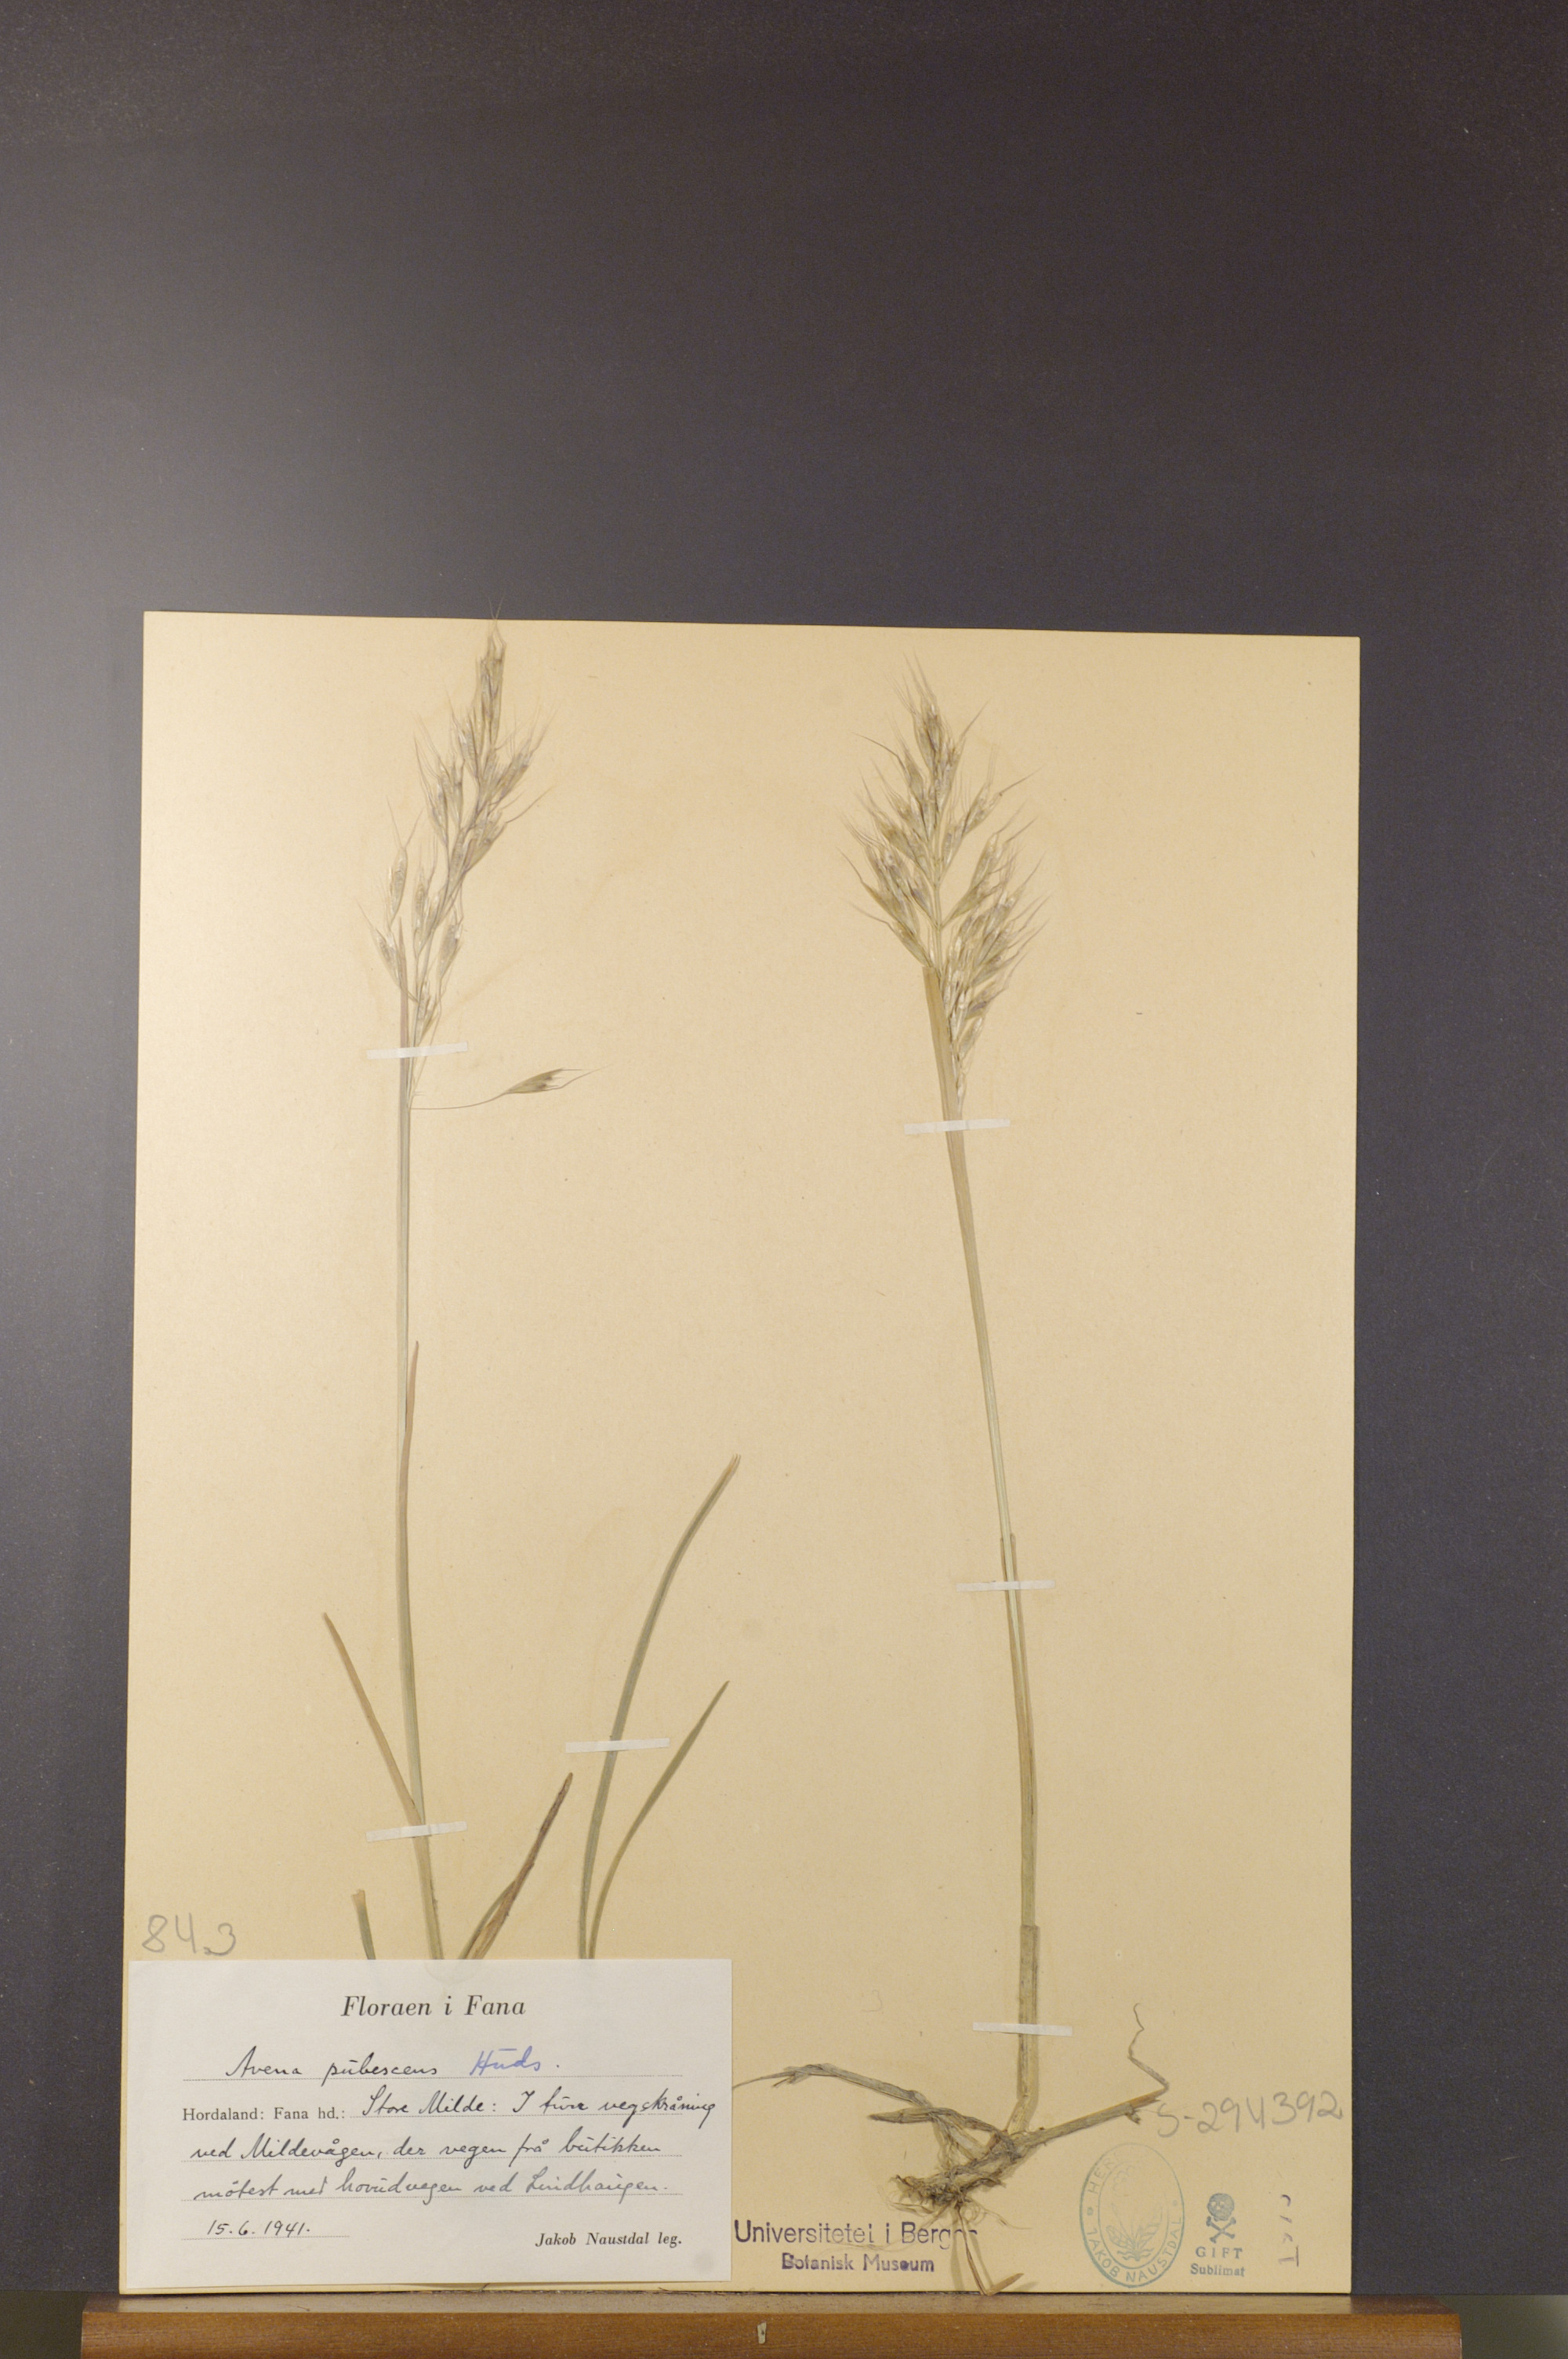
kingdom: Plantae
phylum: Tracheophyta
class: Liliopsida
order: Poales
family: Poaceae
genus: Avenula
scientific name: Avenula pubescens
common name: Downy alpine oatgrass
